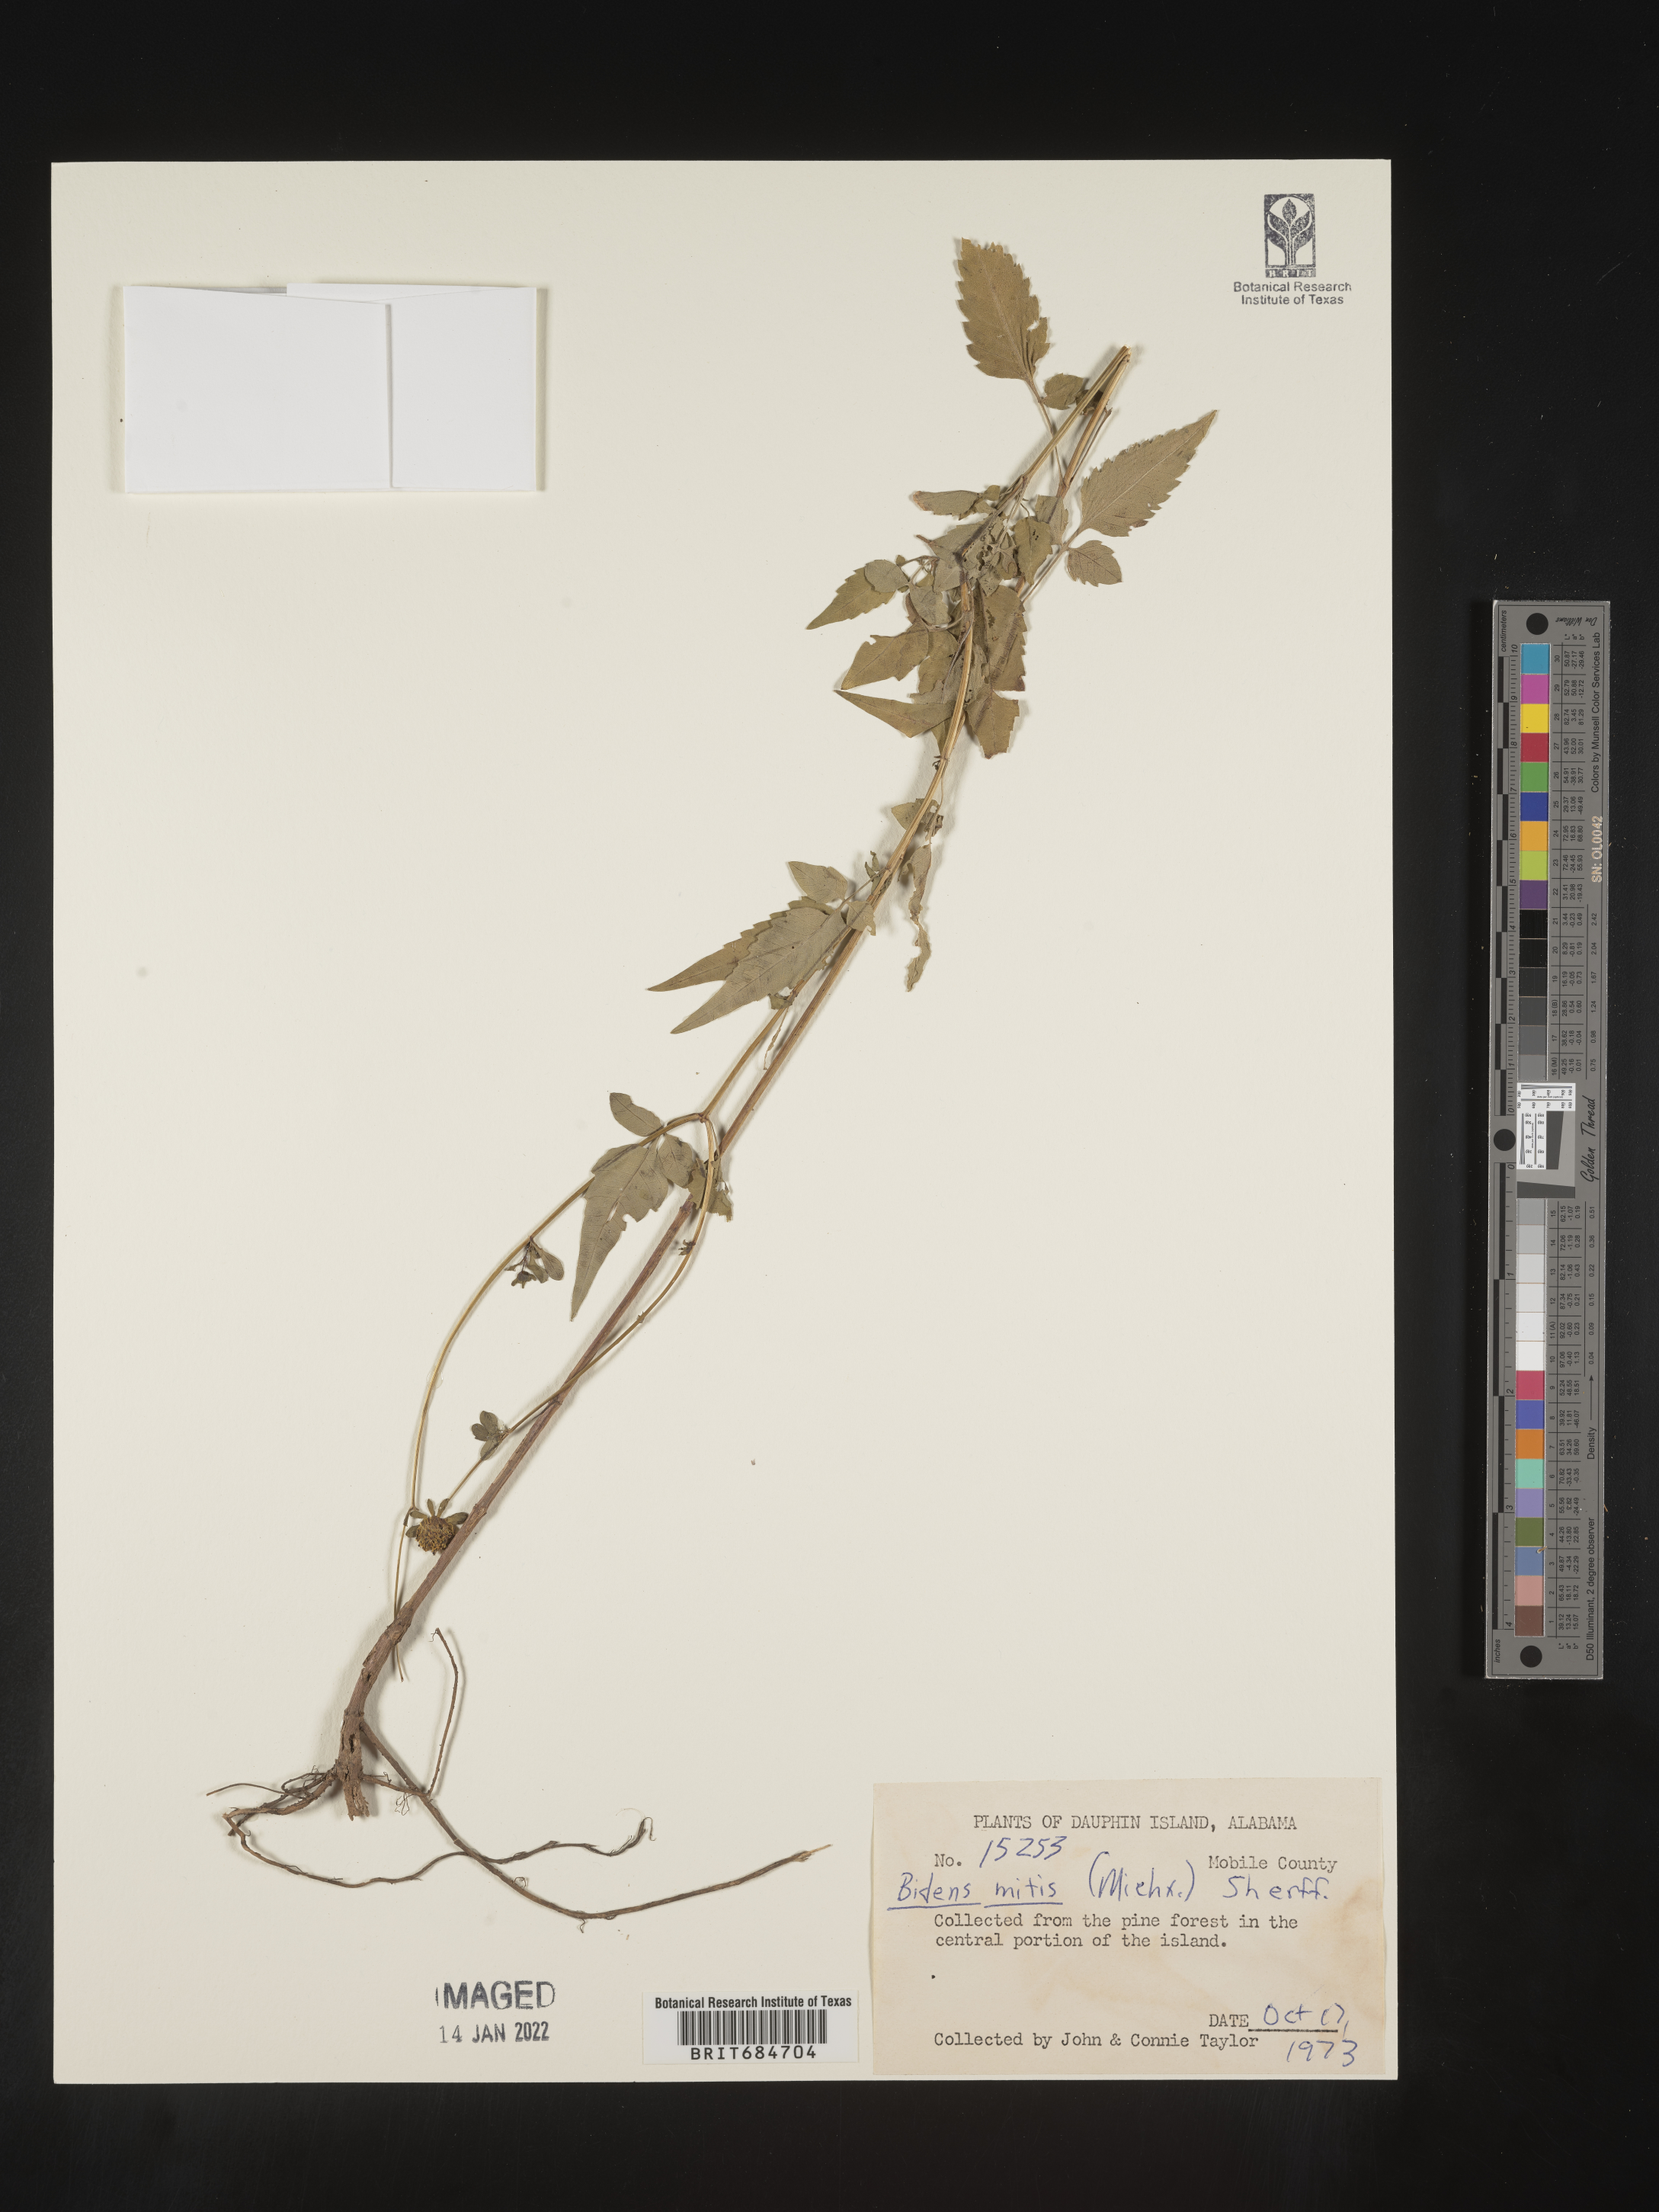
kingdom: Plantae
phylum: Tracheophyta
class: Magnoliopsida
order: Asterales
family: Asteraceae
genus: Bidens
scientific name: Bidens mitis
